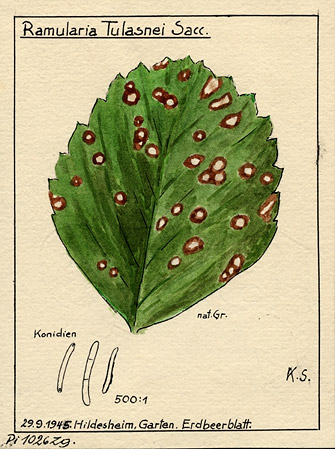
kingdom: Fungi
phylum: Ascomycota
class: Dothideomycetes
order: Mycosphaerellales
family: Mycosphaerellaceae
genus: Ramularia
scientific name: Ramularia brunnea
